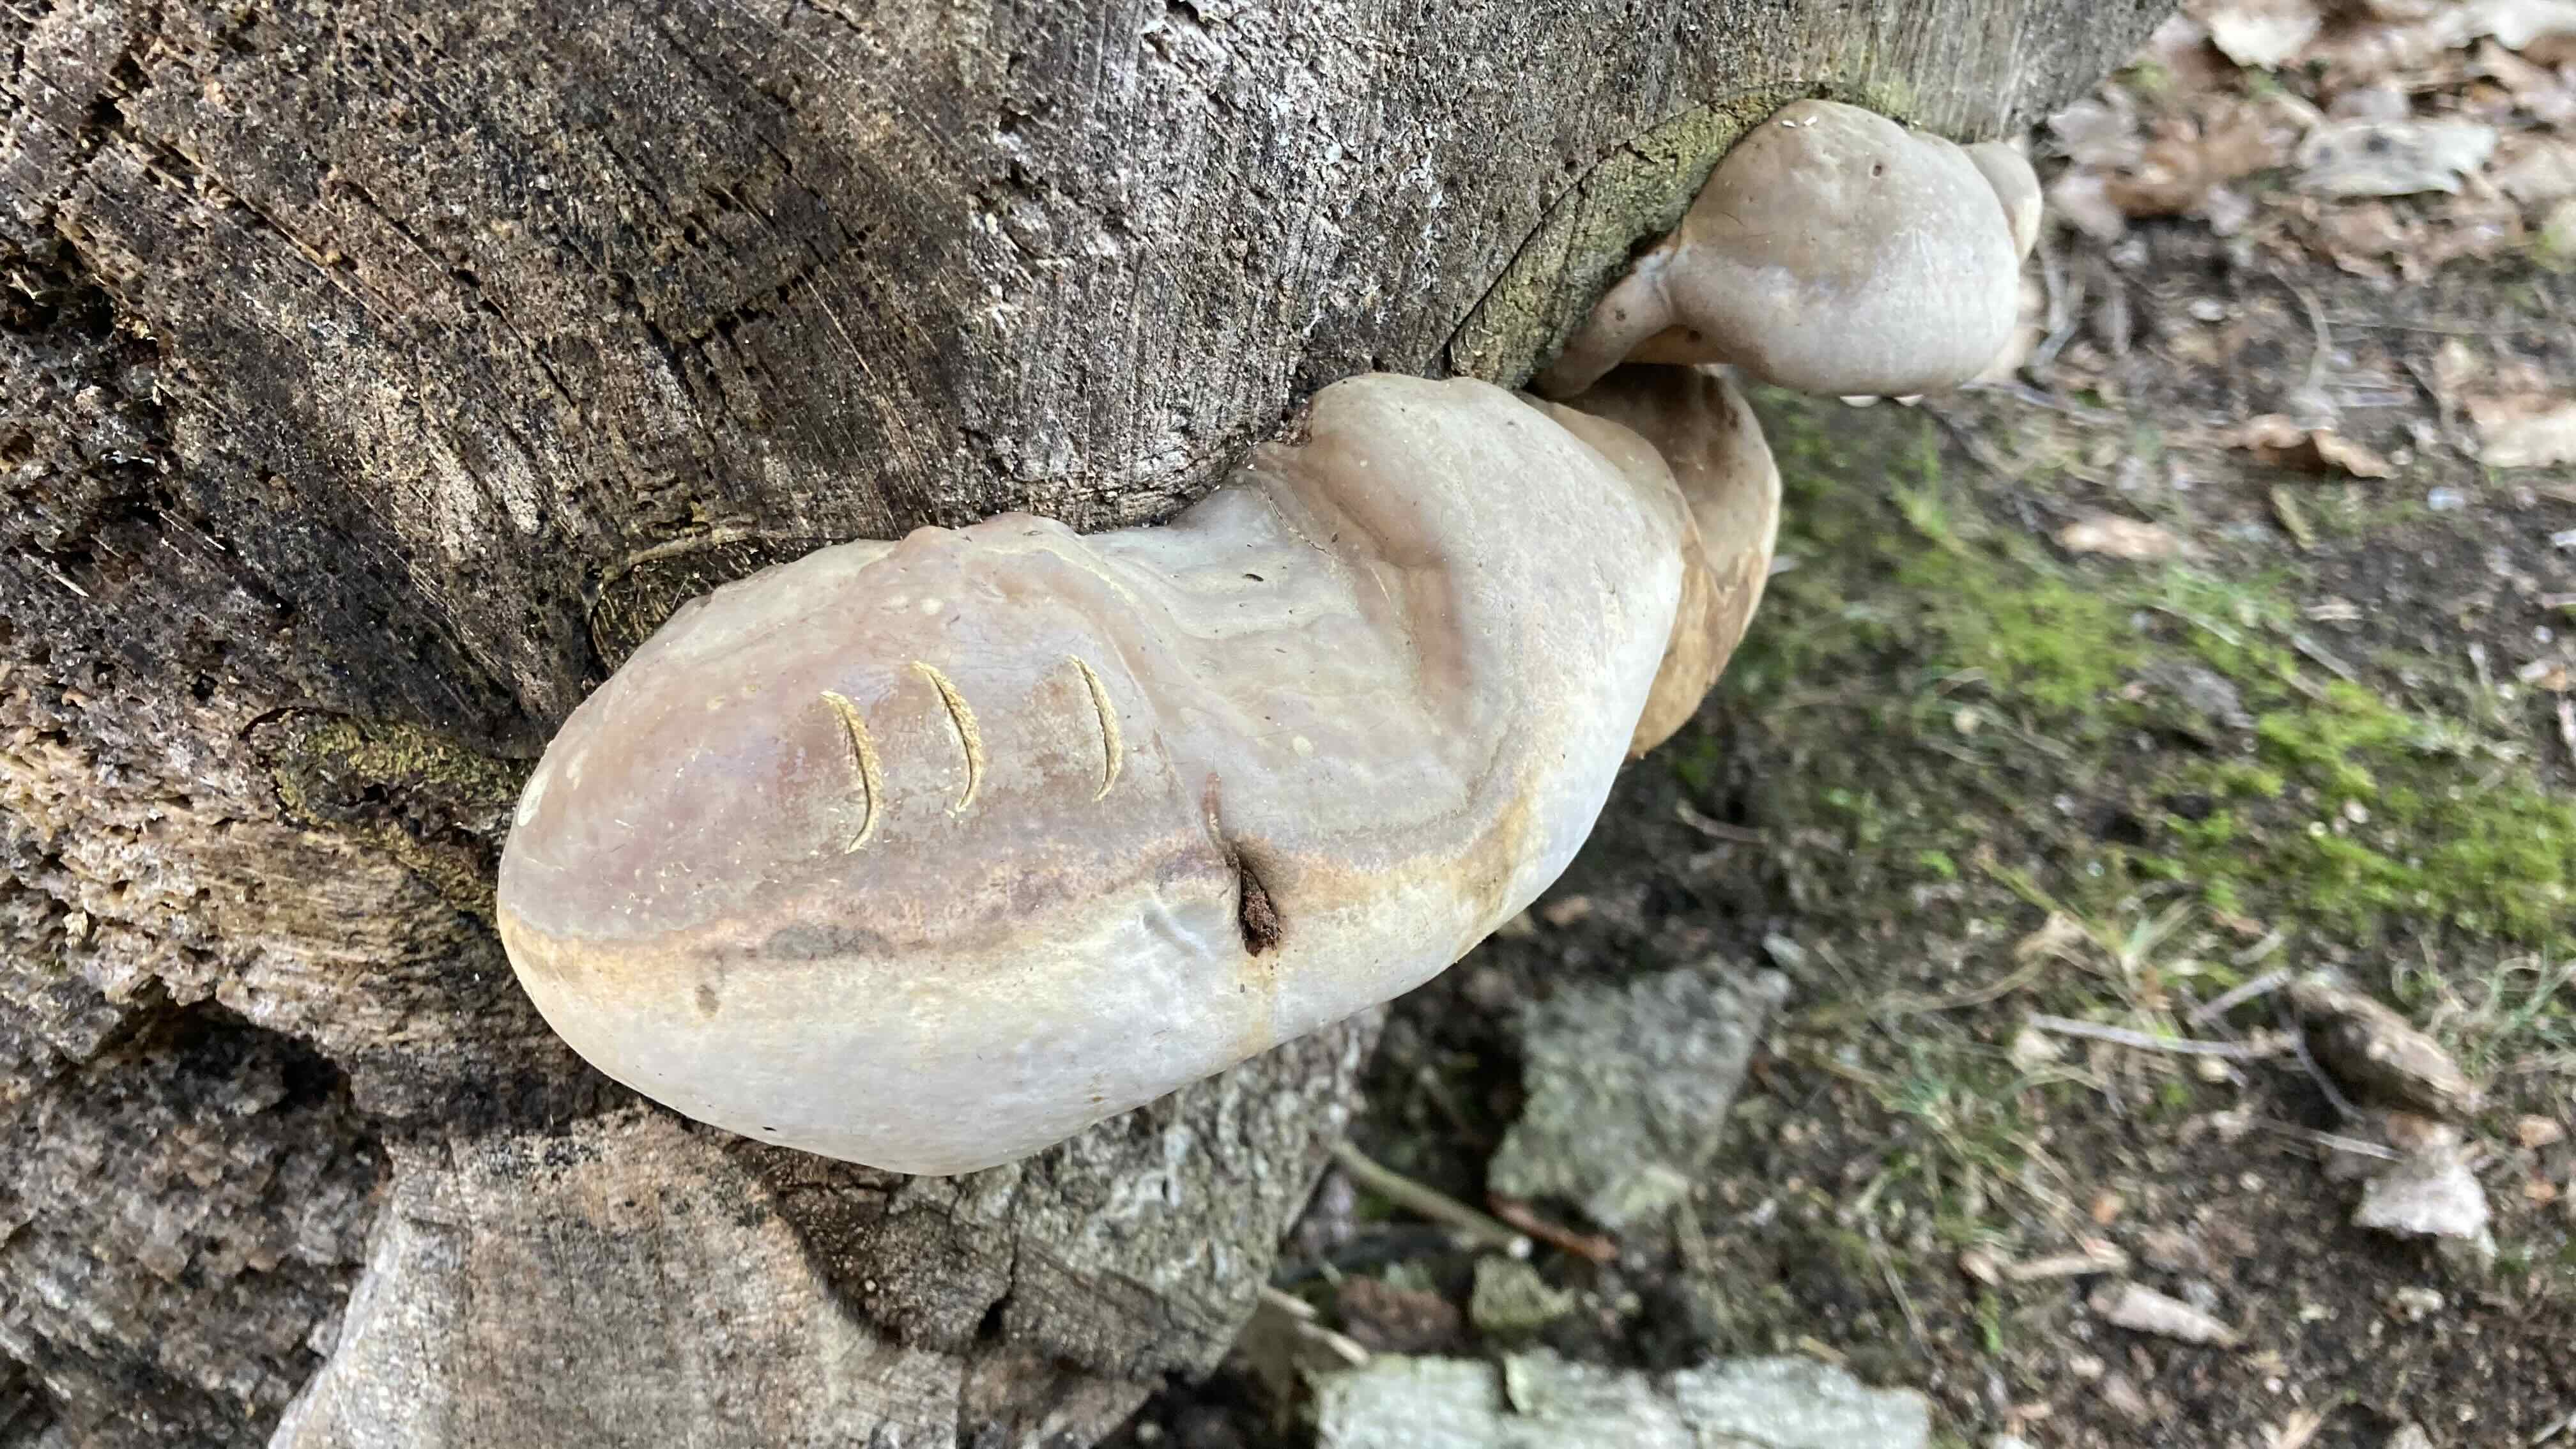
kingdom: Fungi
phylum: Basidiomycota
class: Agaricomycetes
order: Polyporales
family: Polyporaceae
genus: Ganoderma
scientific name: Ganoderma pfeifferi
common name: kobberrød lakporesvamp
